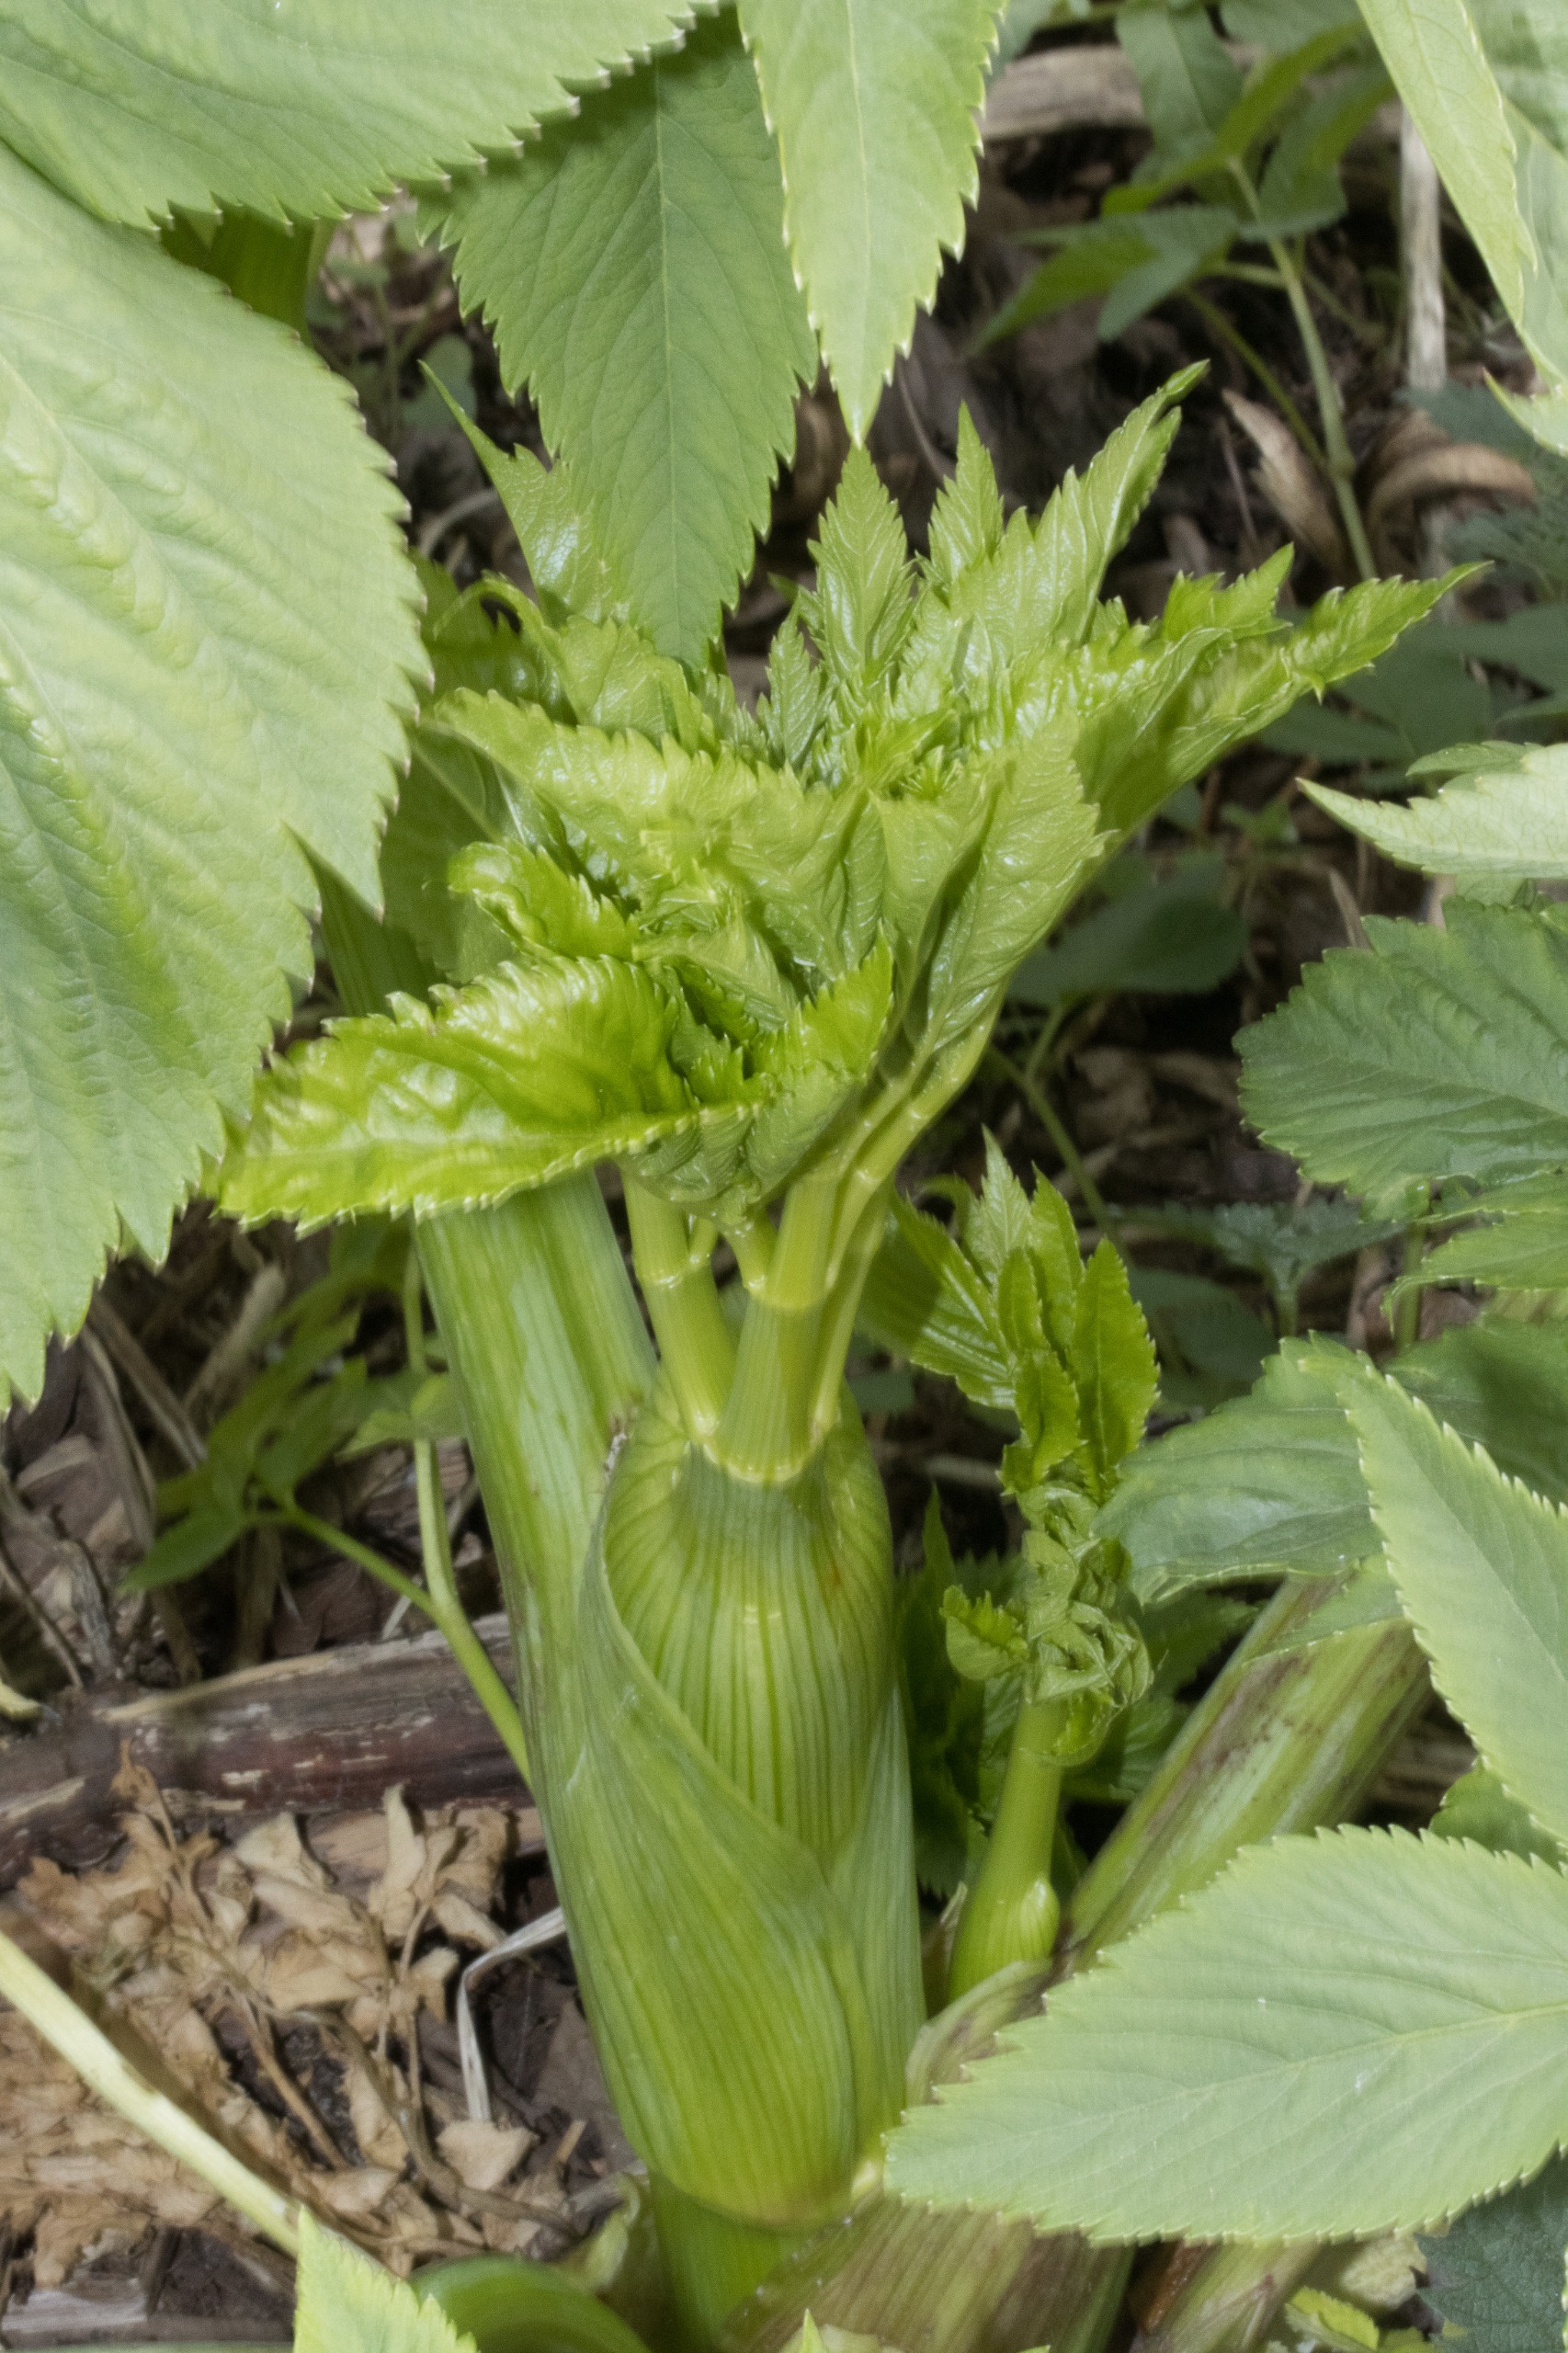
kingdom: Plantae
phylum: Tracheophyta
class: Magnoliopsida
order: Apiales
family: Apiaceae
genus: Angelica
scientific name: Angelica archangelica
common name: Kvan
